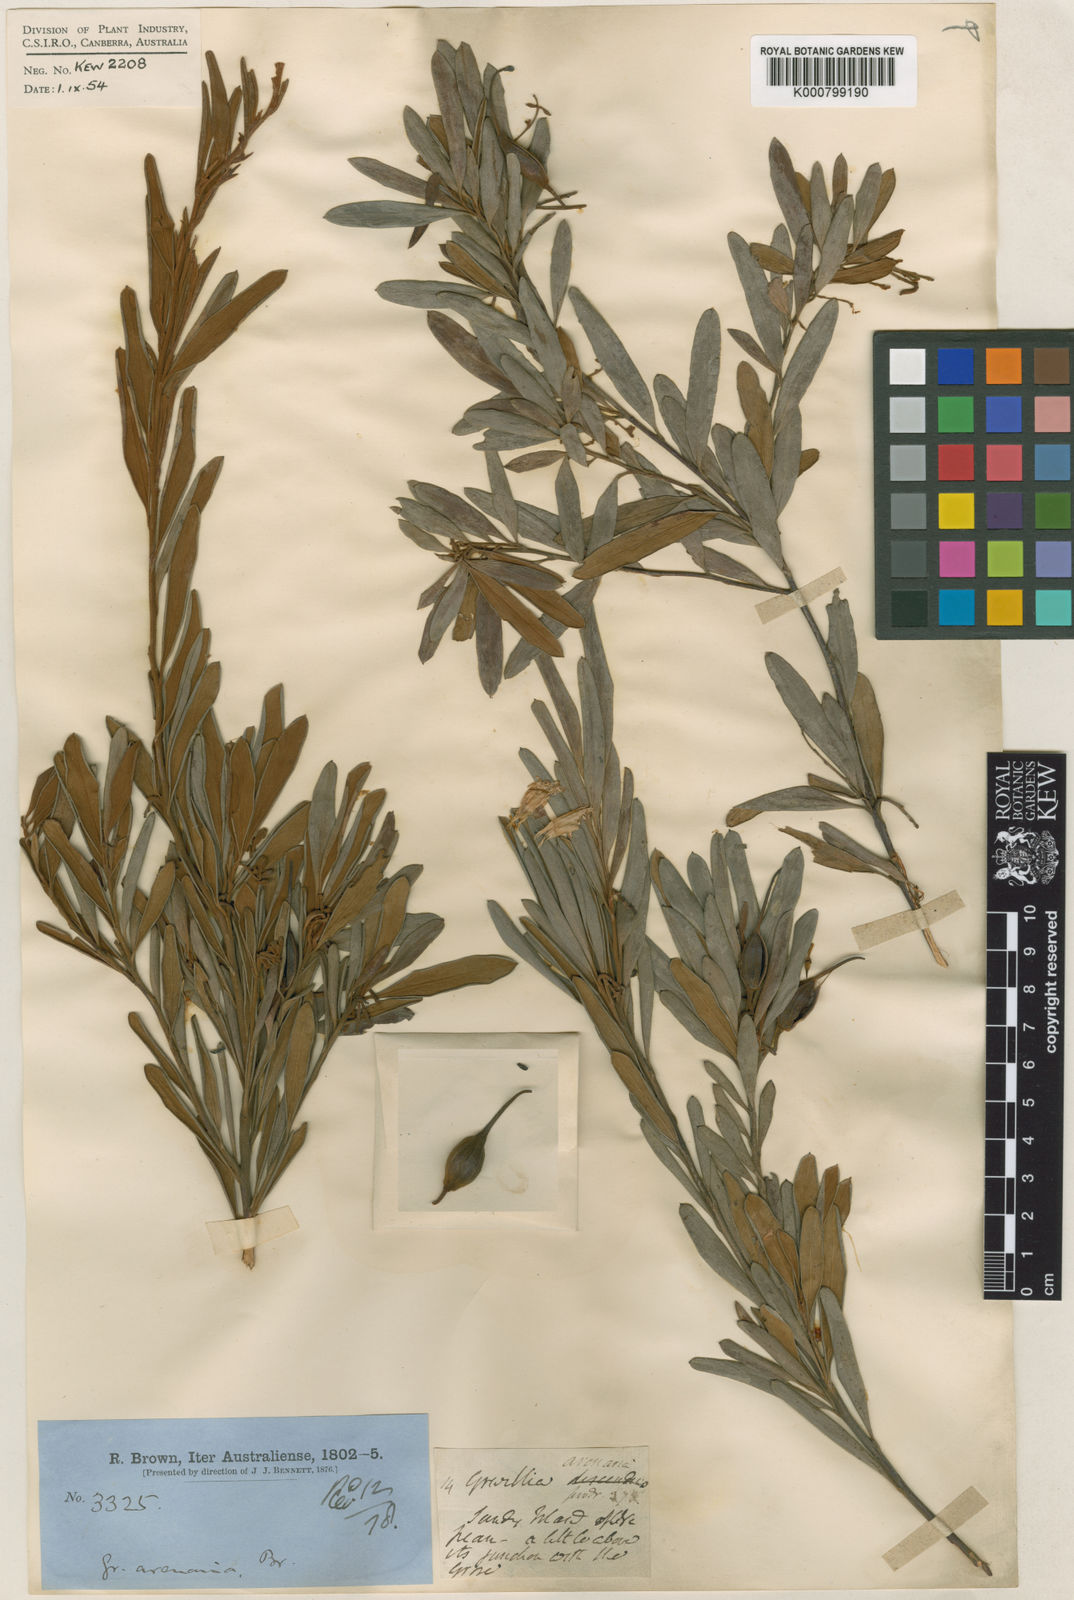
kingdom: Plantae
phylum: Tracheophyta
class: Magnoliopsida
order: Proteales
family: Proteaceae
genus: Grevillea
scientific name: Grevillea arenaria
